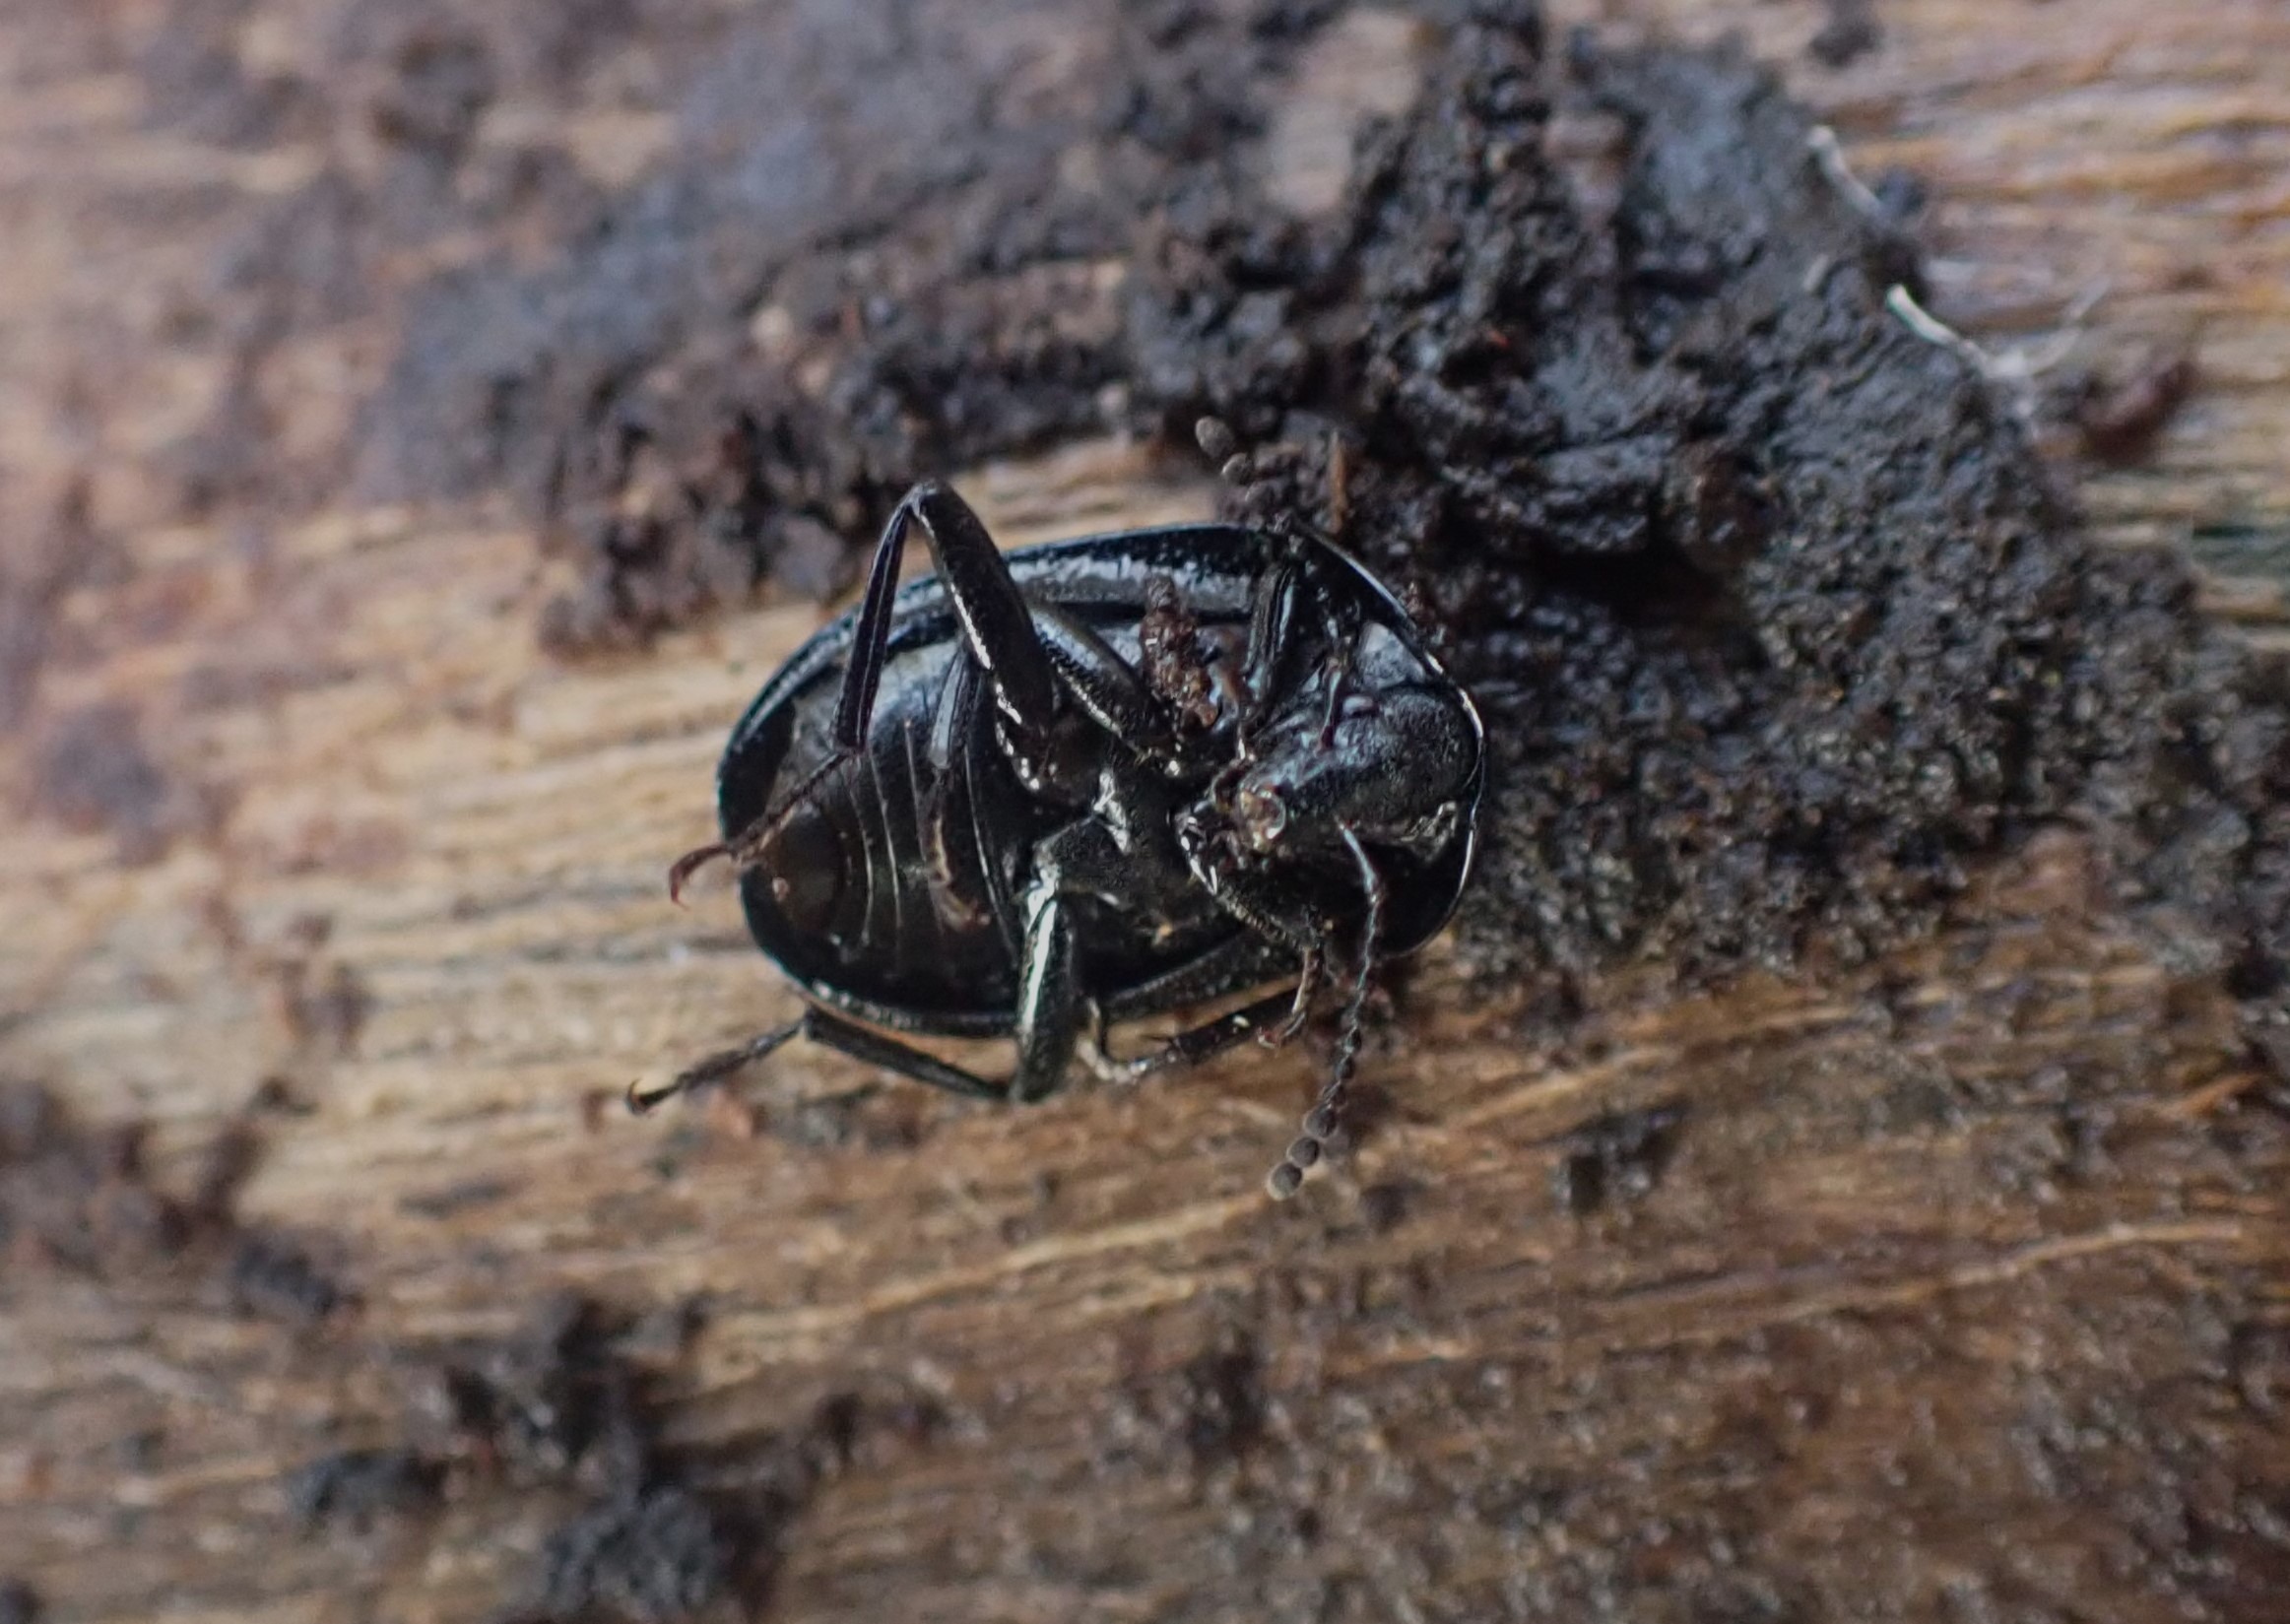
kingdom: Animalia
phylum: Arthropoda
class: Insecta
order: Coleoptera
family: Staphylinidae
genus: Silpha
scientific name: Silpha atrata
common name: Snegleådselbille
